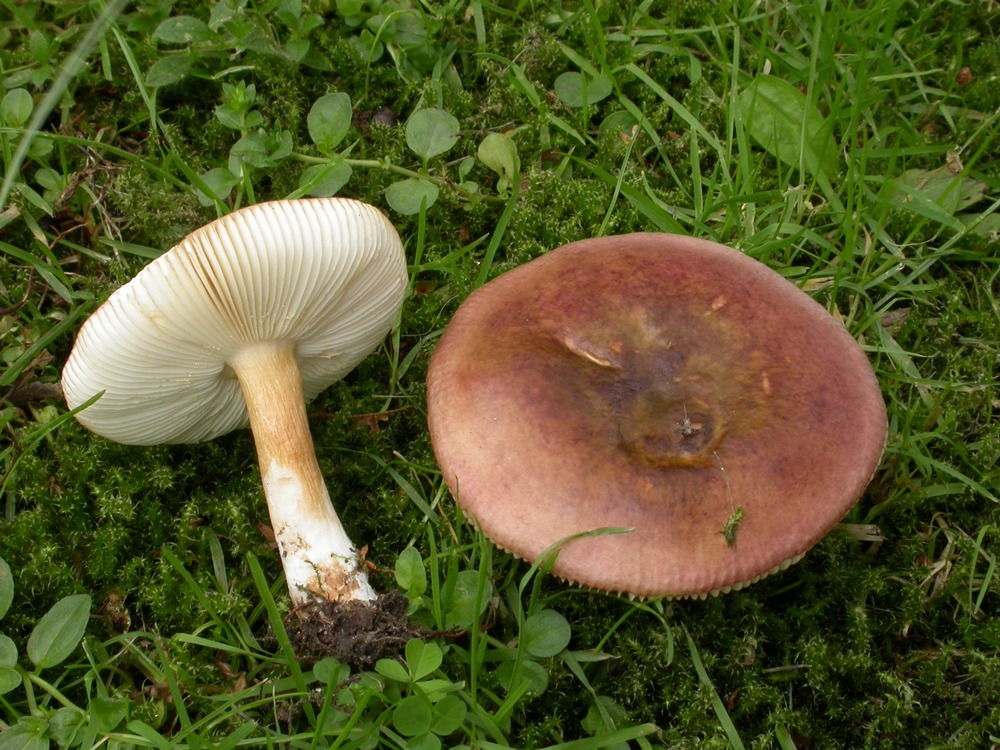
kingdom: Fungi
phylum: Basidiomycota
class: Agaricomycetes
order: Russulales
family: Russulaceae
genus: Russula
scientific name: Russula versicolor
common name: foranderlig skørhat
